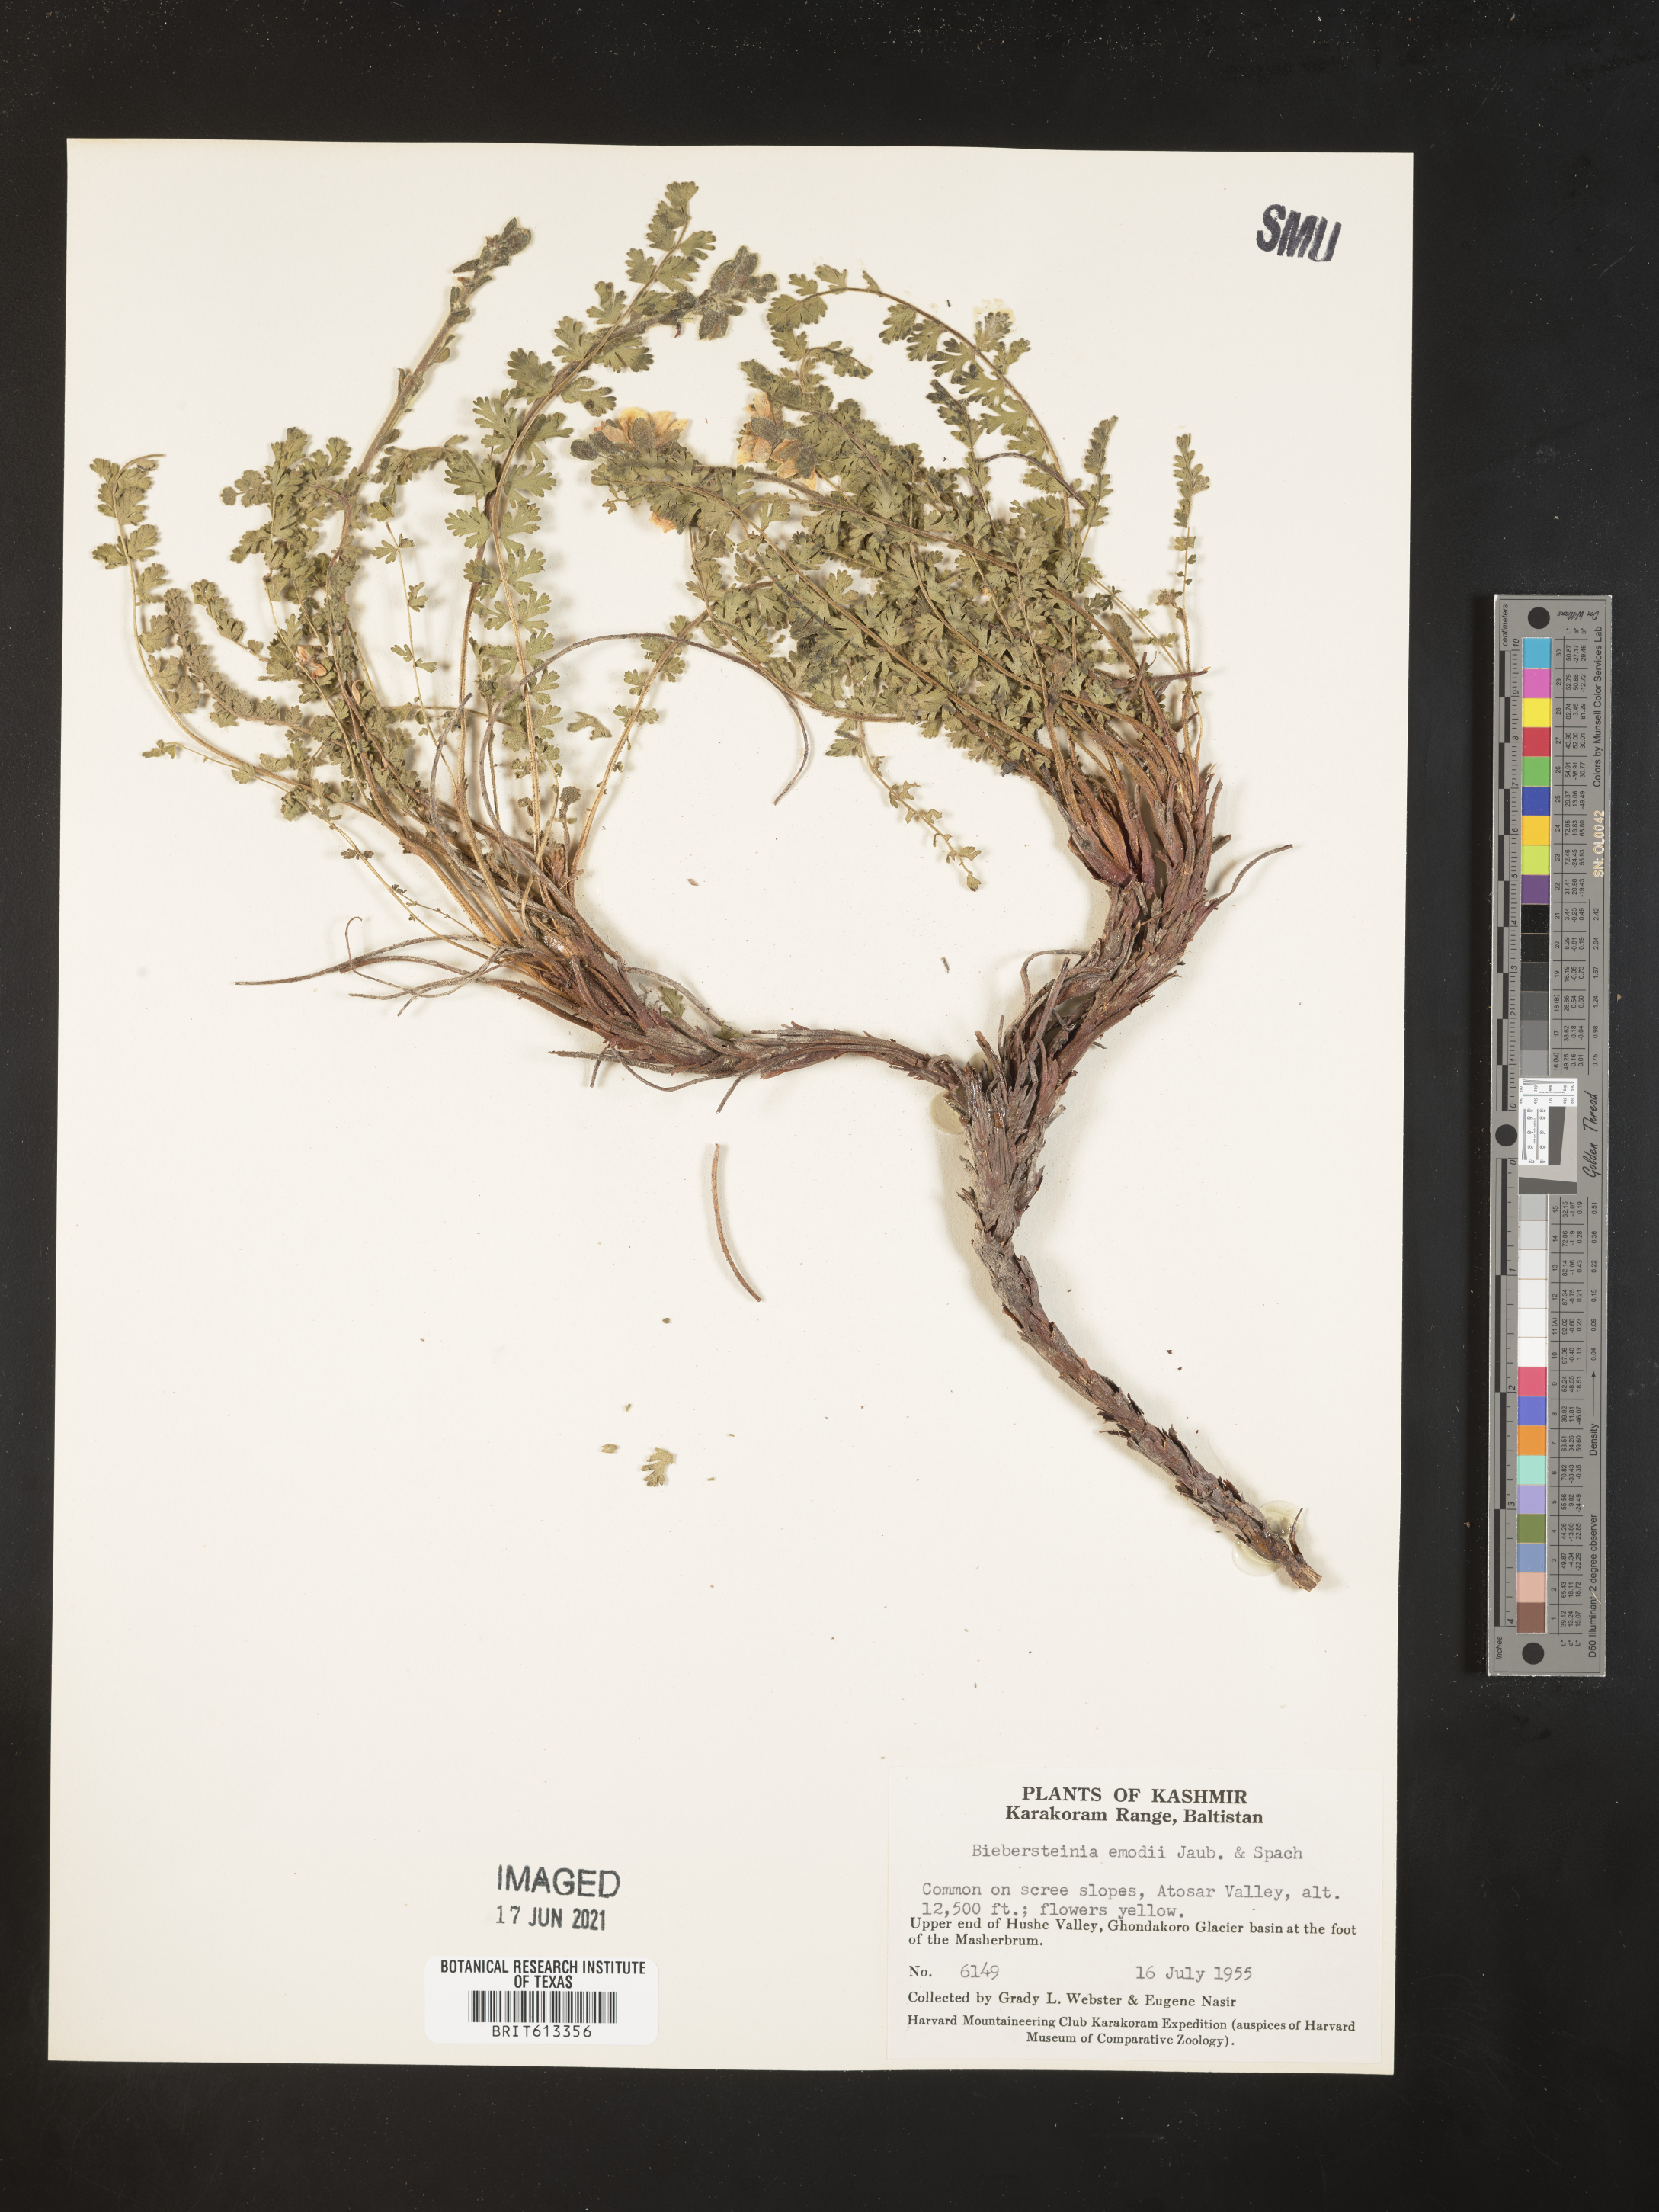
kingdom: Plantae
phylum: Tracheophyta
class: Magnoliopsida
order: Sapindales
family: Biebersteiniaceae
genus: Biebersteinia
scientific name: Biebersteinia odora
